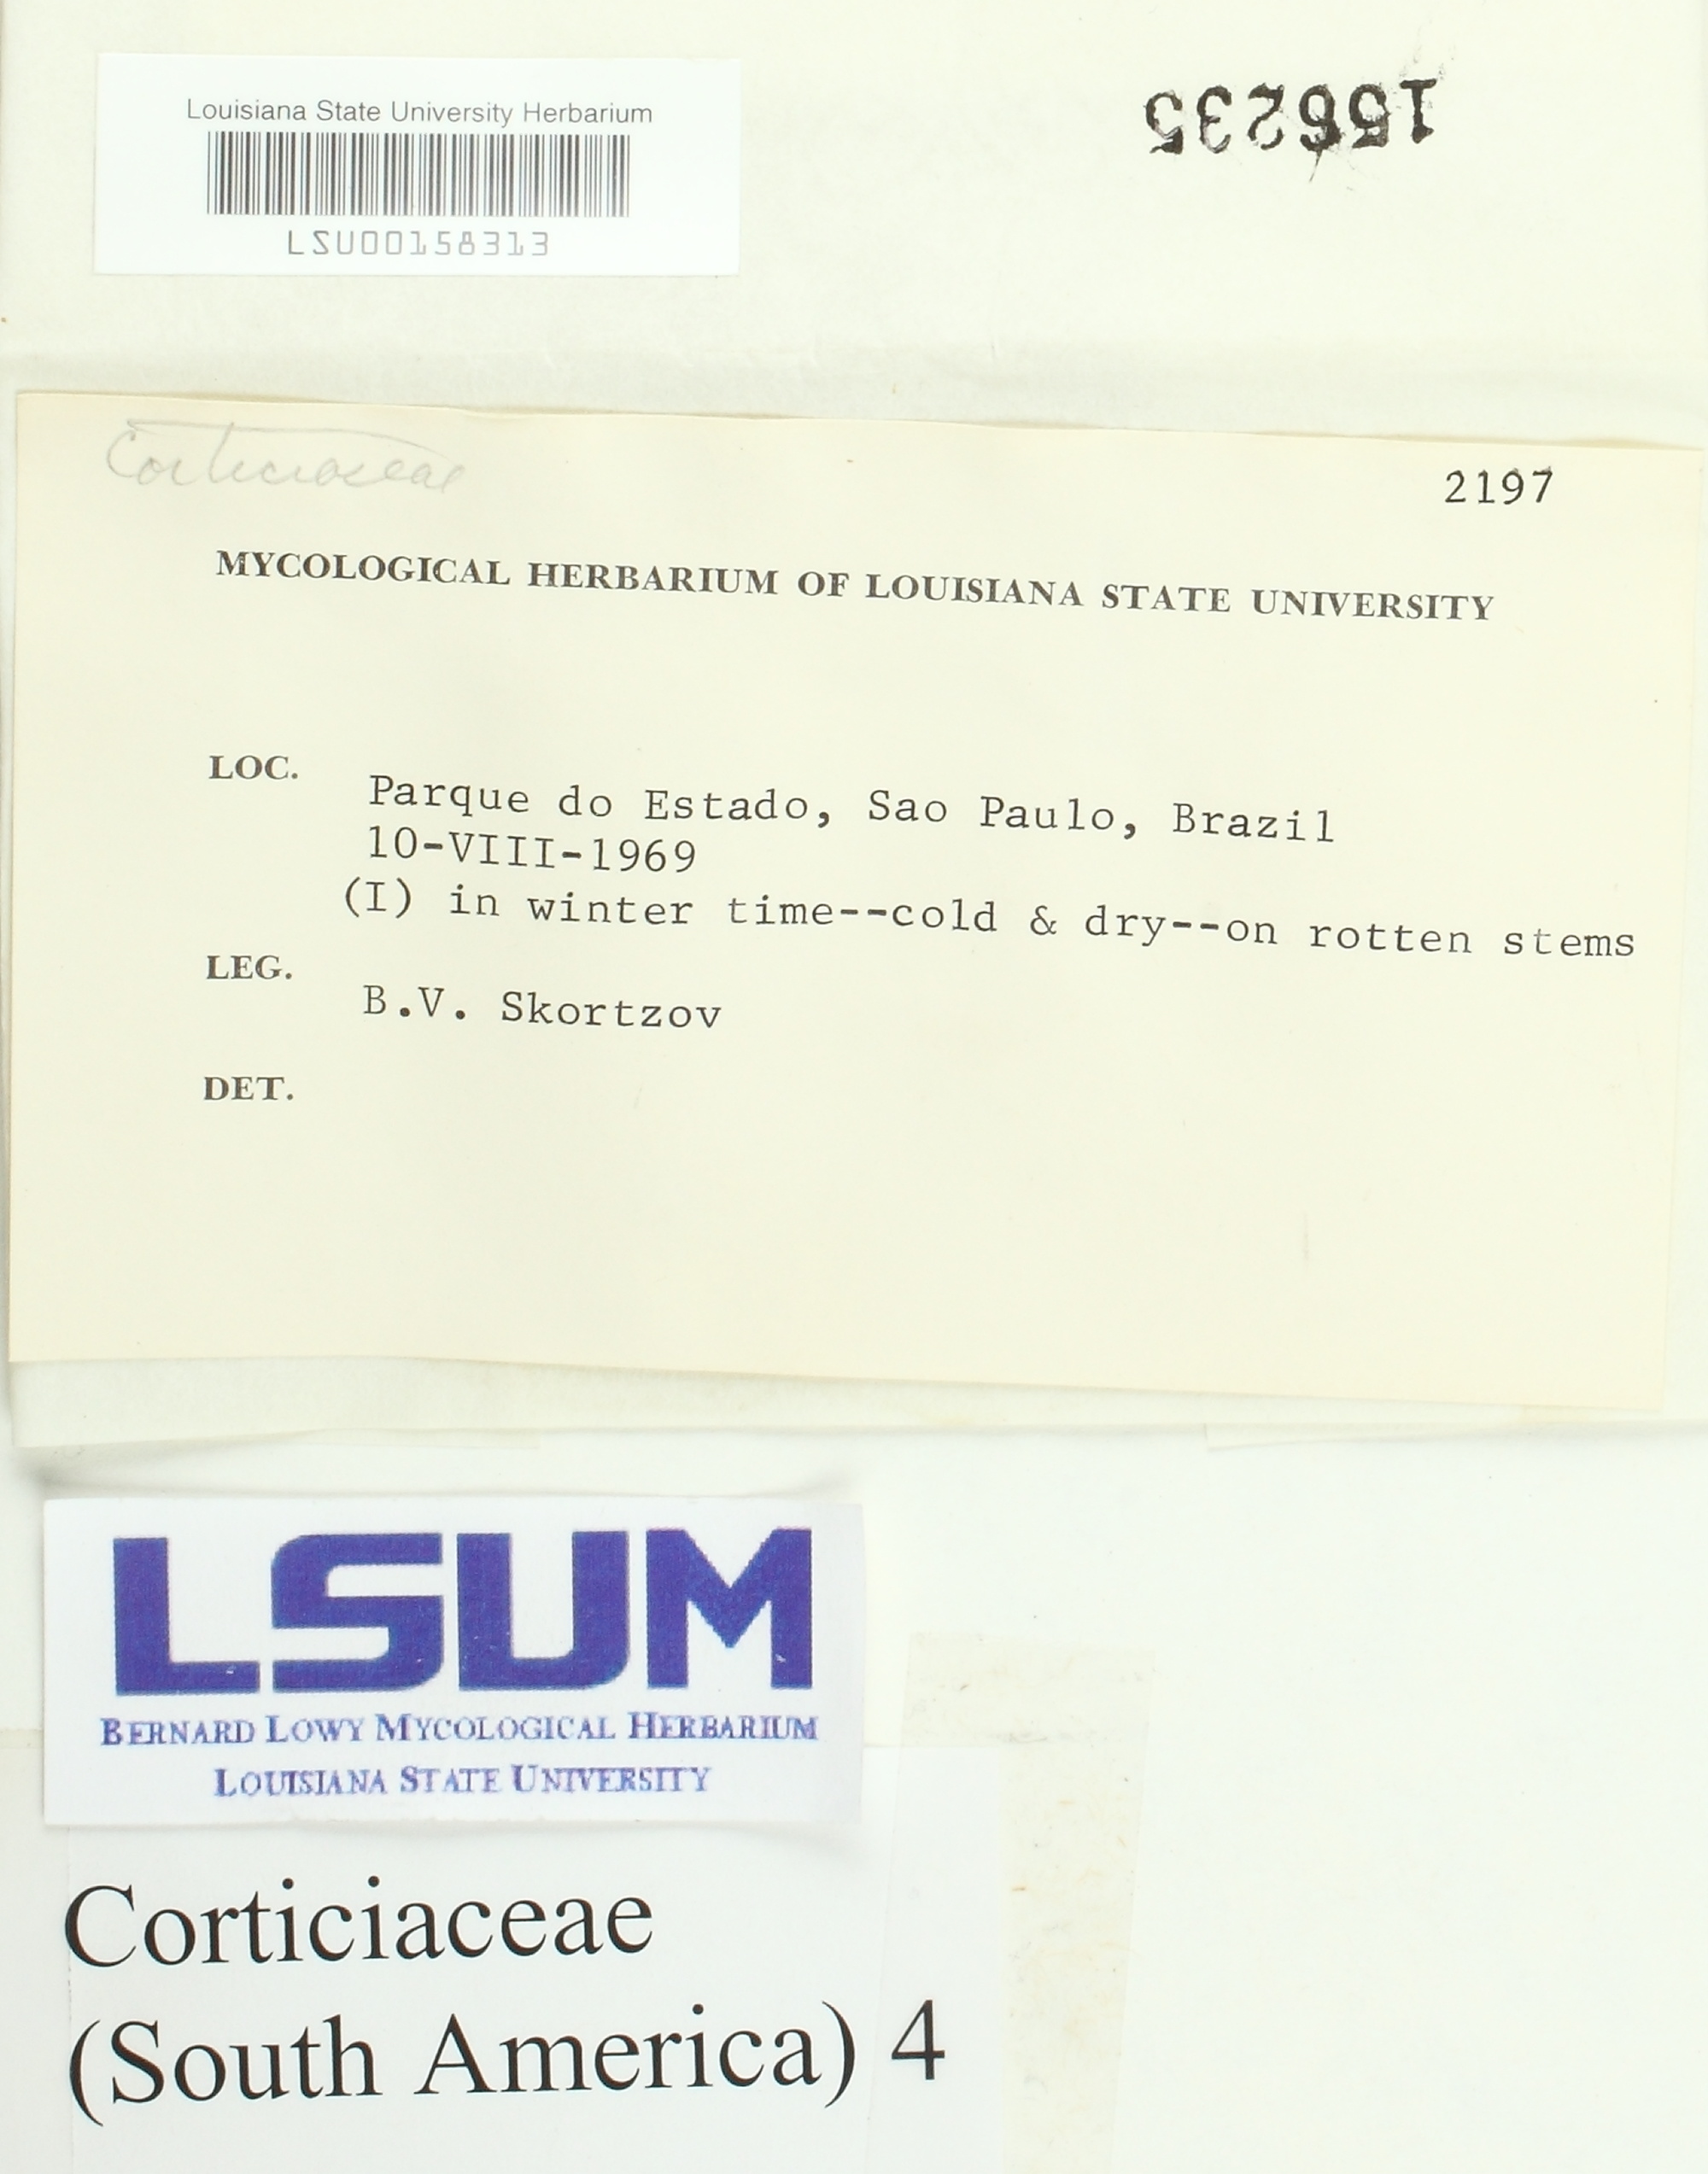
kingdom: Fungi
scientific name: Fungi
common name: Fungi
